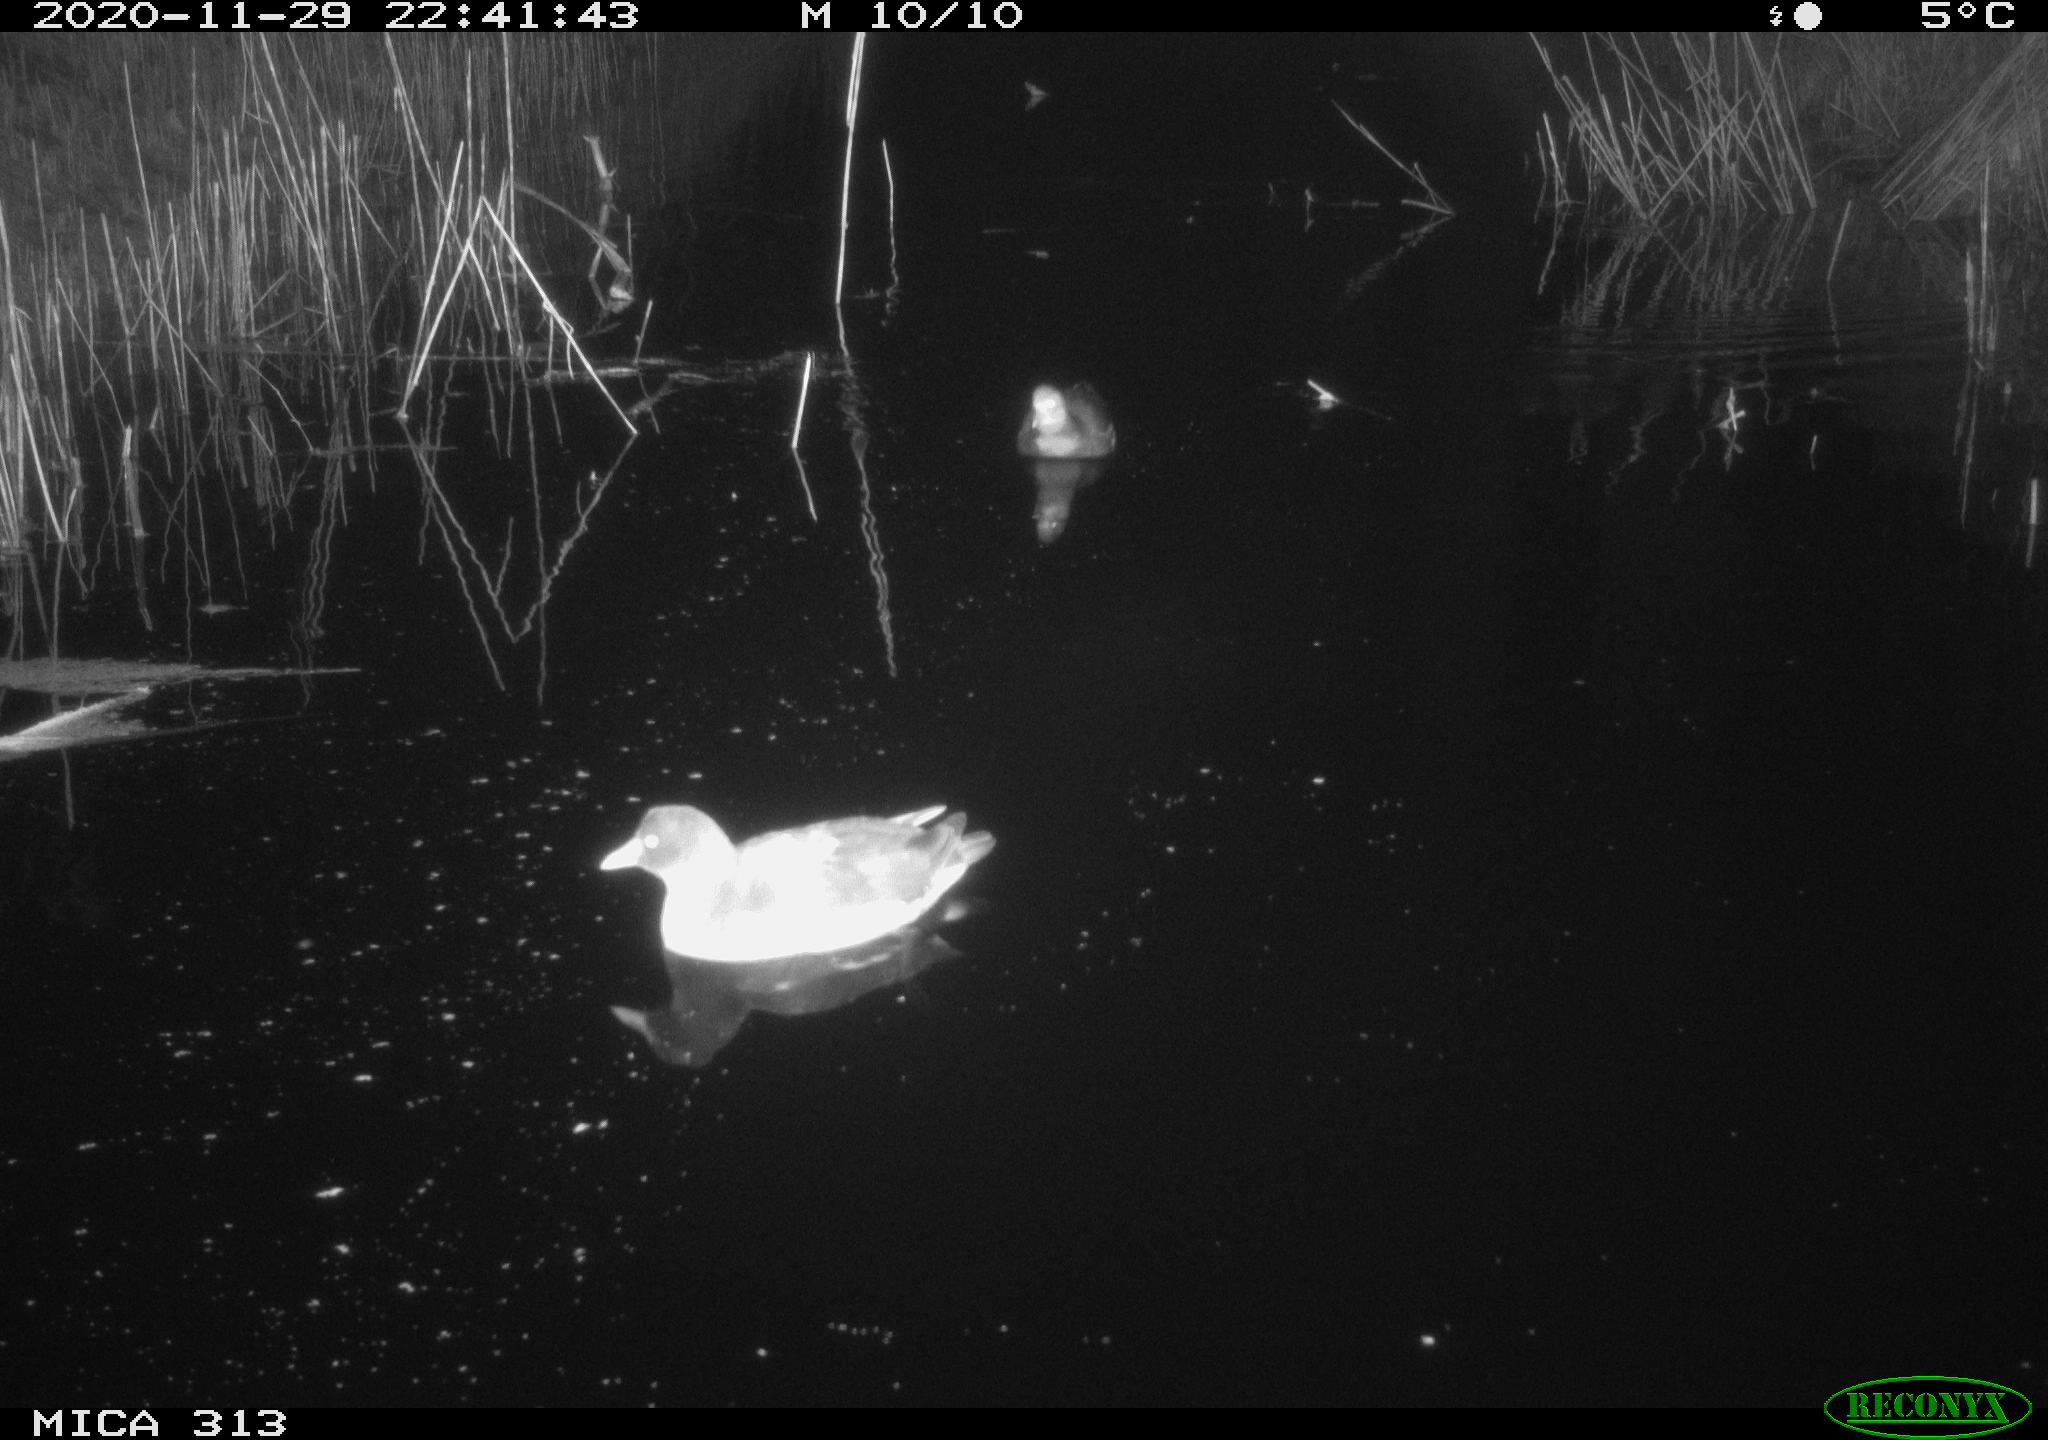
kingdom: Animalia
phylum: Chordata
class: Aves
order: Gruiformes
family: Rallidae
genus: Gallinula
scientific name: Gallinula chloropus
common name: Common moorhen
